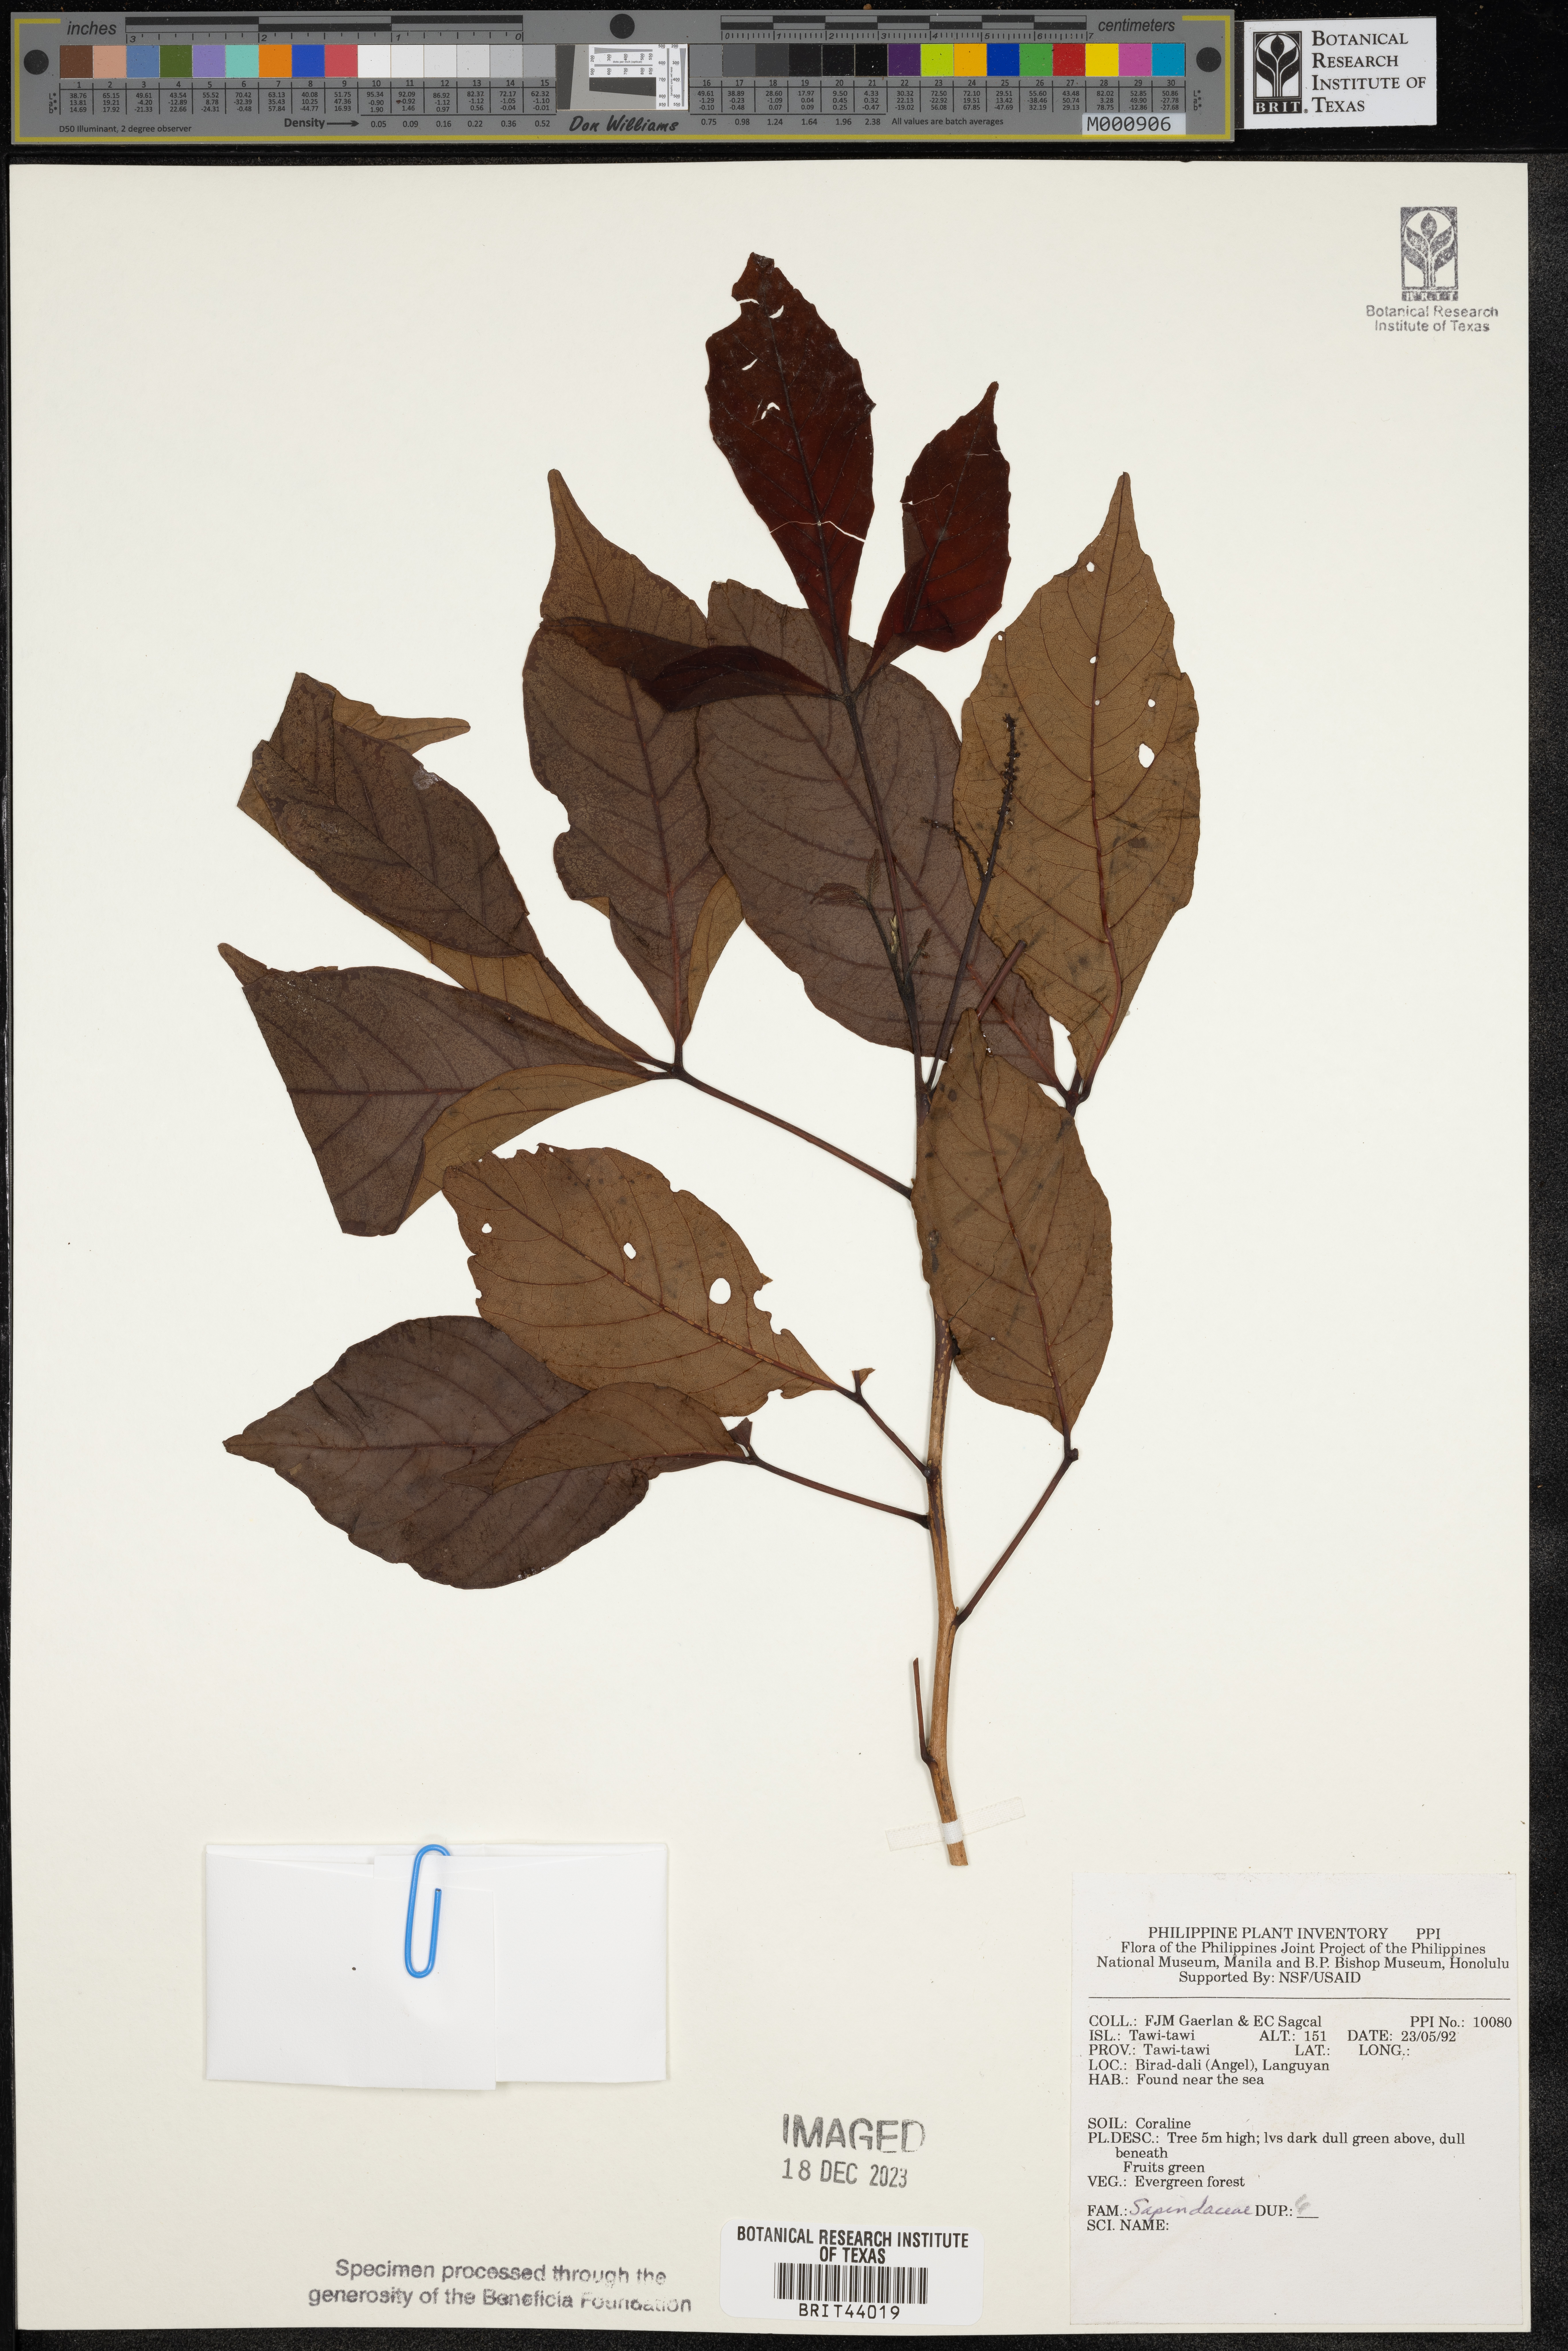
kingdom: Plantae
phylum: Tracheophyta
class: Magnoliopsida
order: Sapindales
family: Sapindaceae
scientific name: Sapindaceae
